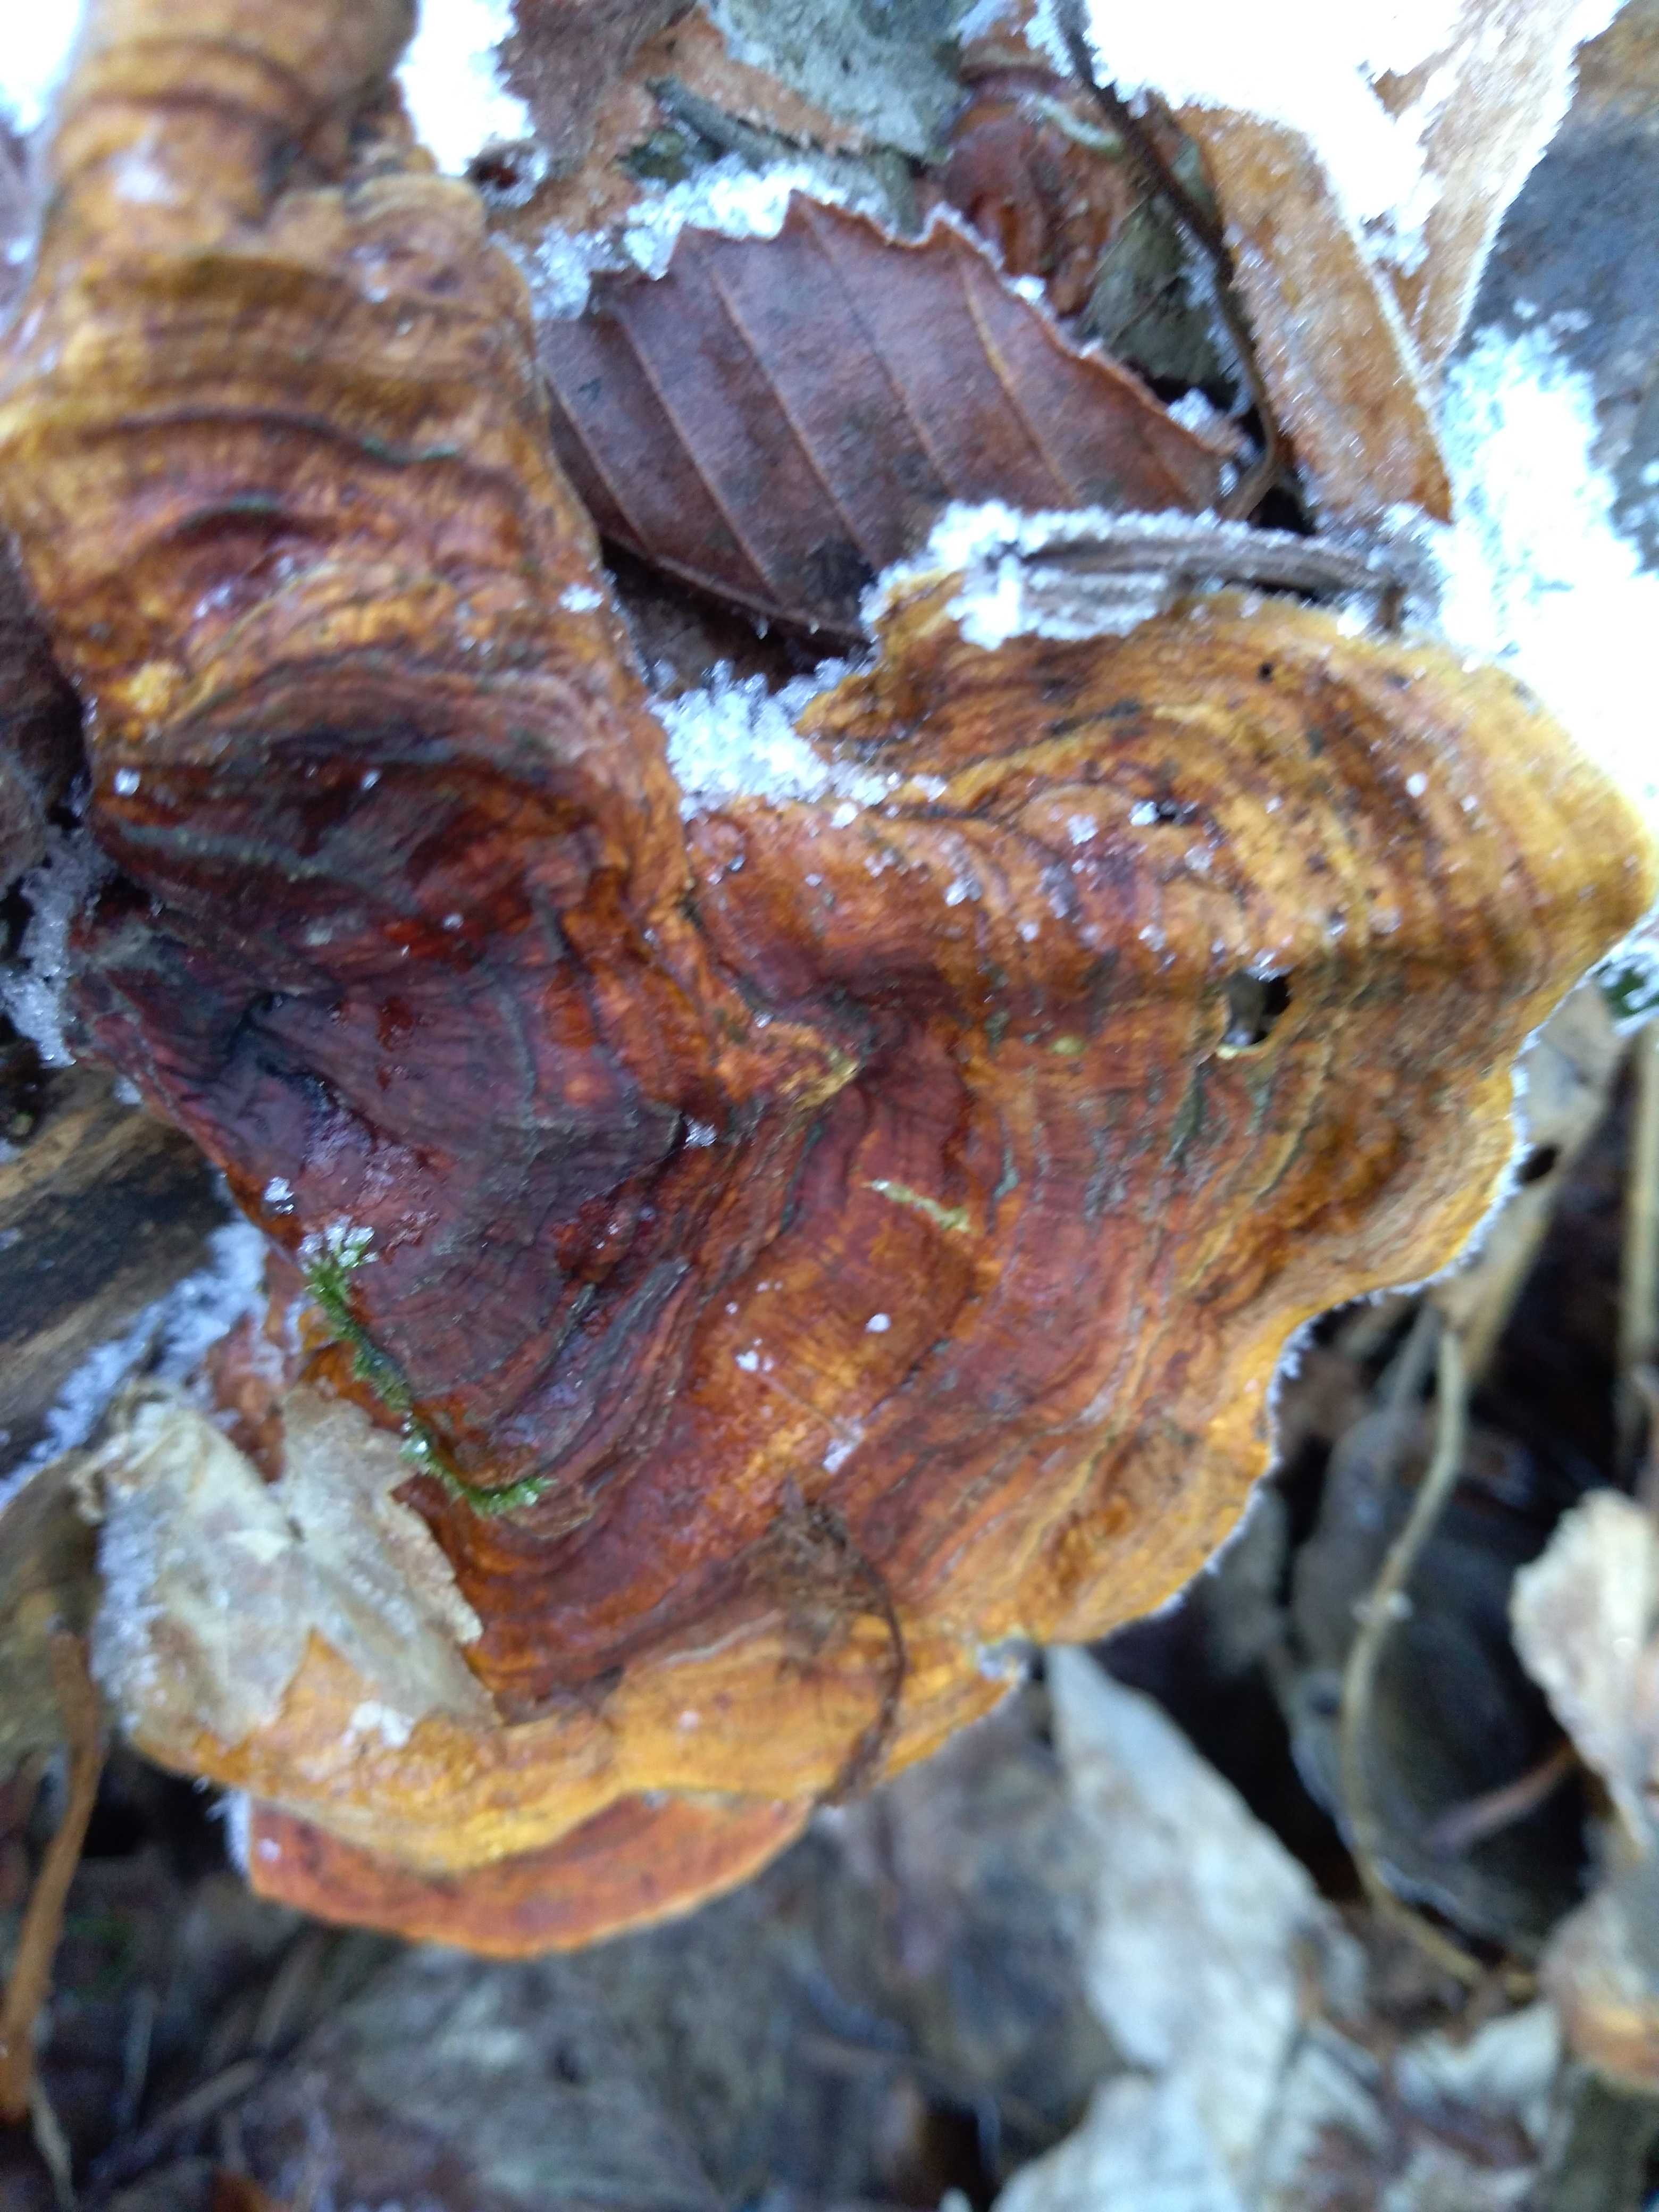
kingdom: Fungi
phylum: Basidiomycota
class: Agaricomycetes
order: Russulales
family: Stereaceae
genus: Stereum
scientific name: Stereum subtomentosum
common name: smuk lædersvamp
